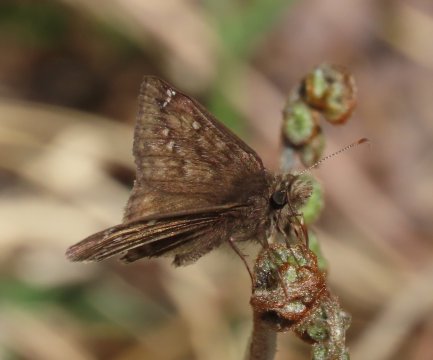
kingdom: Animalia
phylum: Arthropoda
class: Insecta
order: Lepidoptera
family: Hesperiidae
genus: Gesta
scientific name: Gesta
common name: Juvenal's Duskywing
